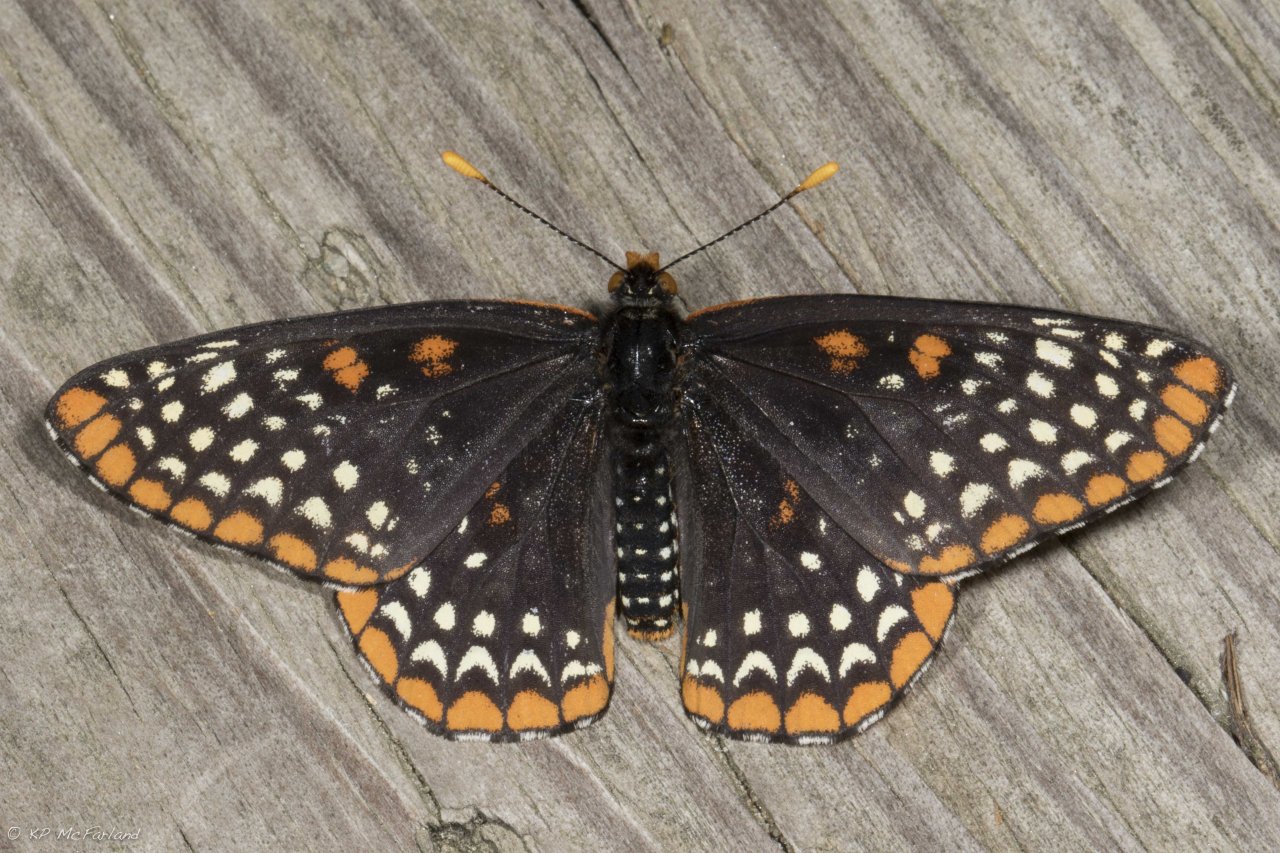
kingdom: Animalia
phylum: Arthropoda
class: Insecta
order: Lepidoptera
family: Nymphalidae
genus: Euphydryas
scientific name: Euphydryas phaeton
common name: Baltimore Checkerspot
